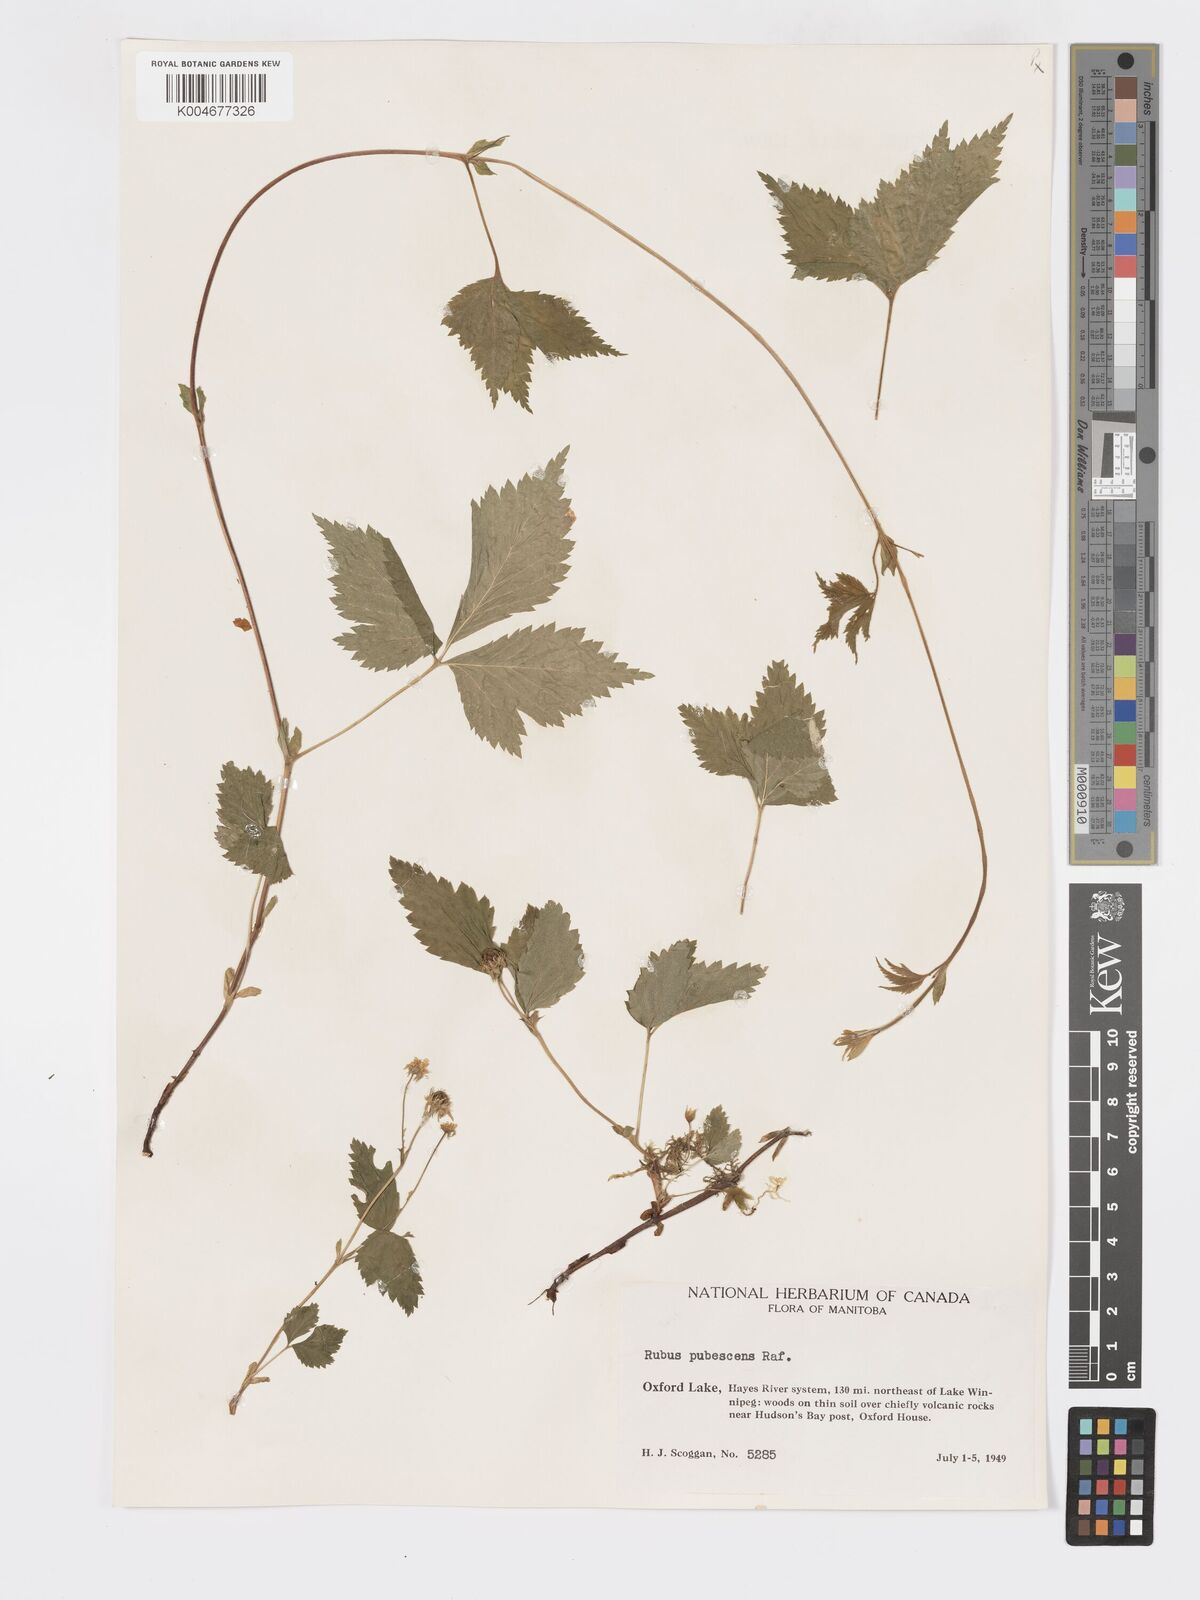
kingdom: Plantae
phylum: Tracheophyta
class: Magnoliopsida
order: Rosales
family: Rosaceae
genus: Rubus
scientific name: Rubus
